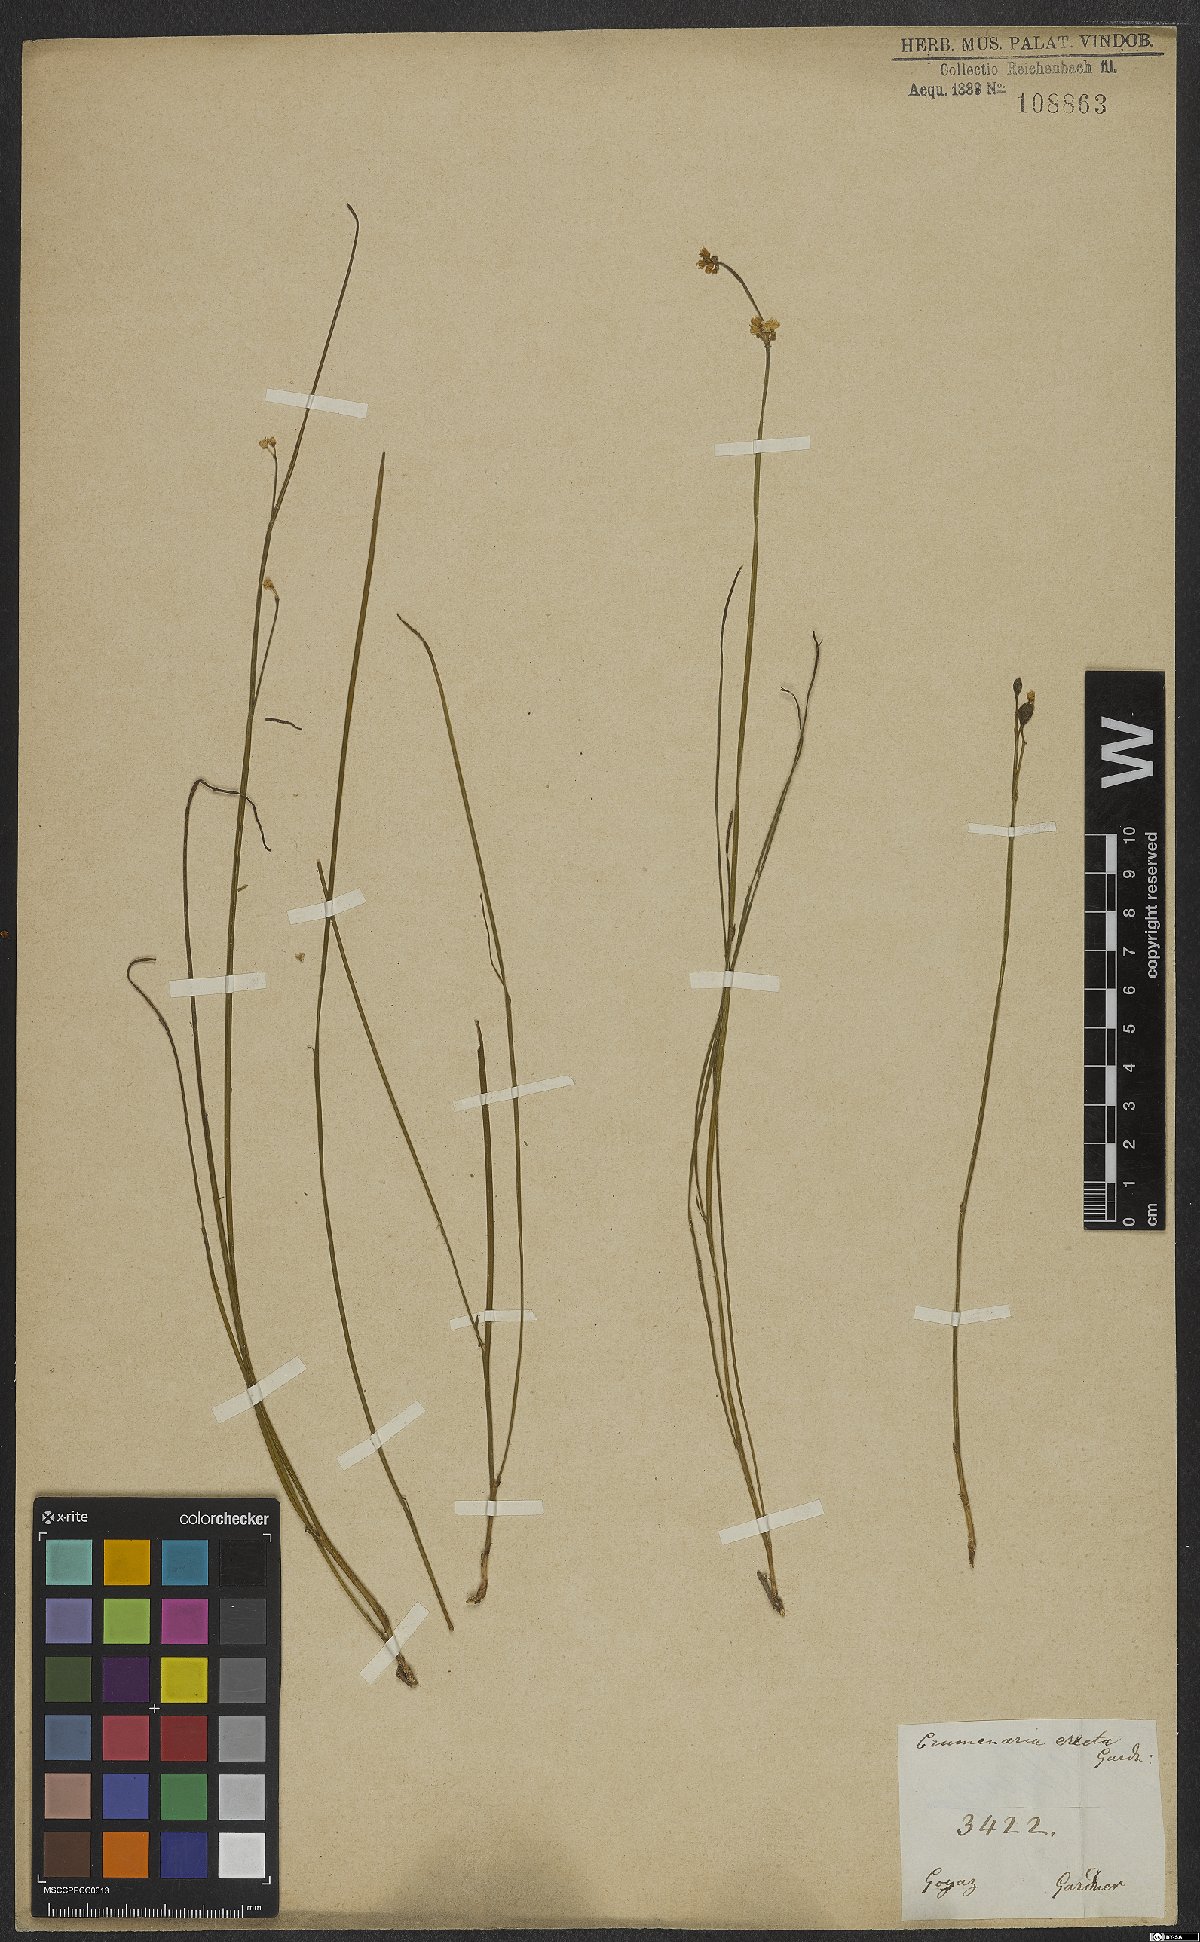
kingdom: Plantae
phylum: Tracheophyta
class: Magnoliopsida
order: Rosales
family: Rhamnaceae
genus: Crumenaria
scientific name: Crumenaria erecta
